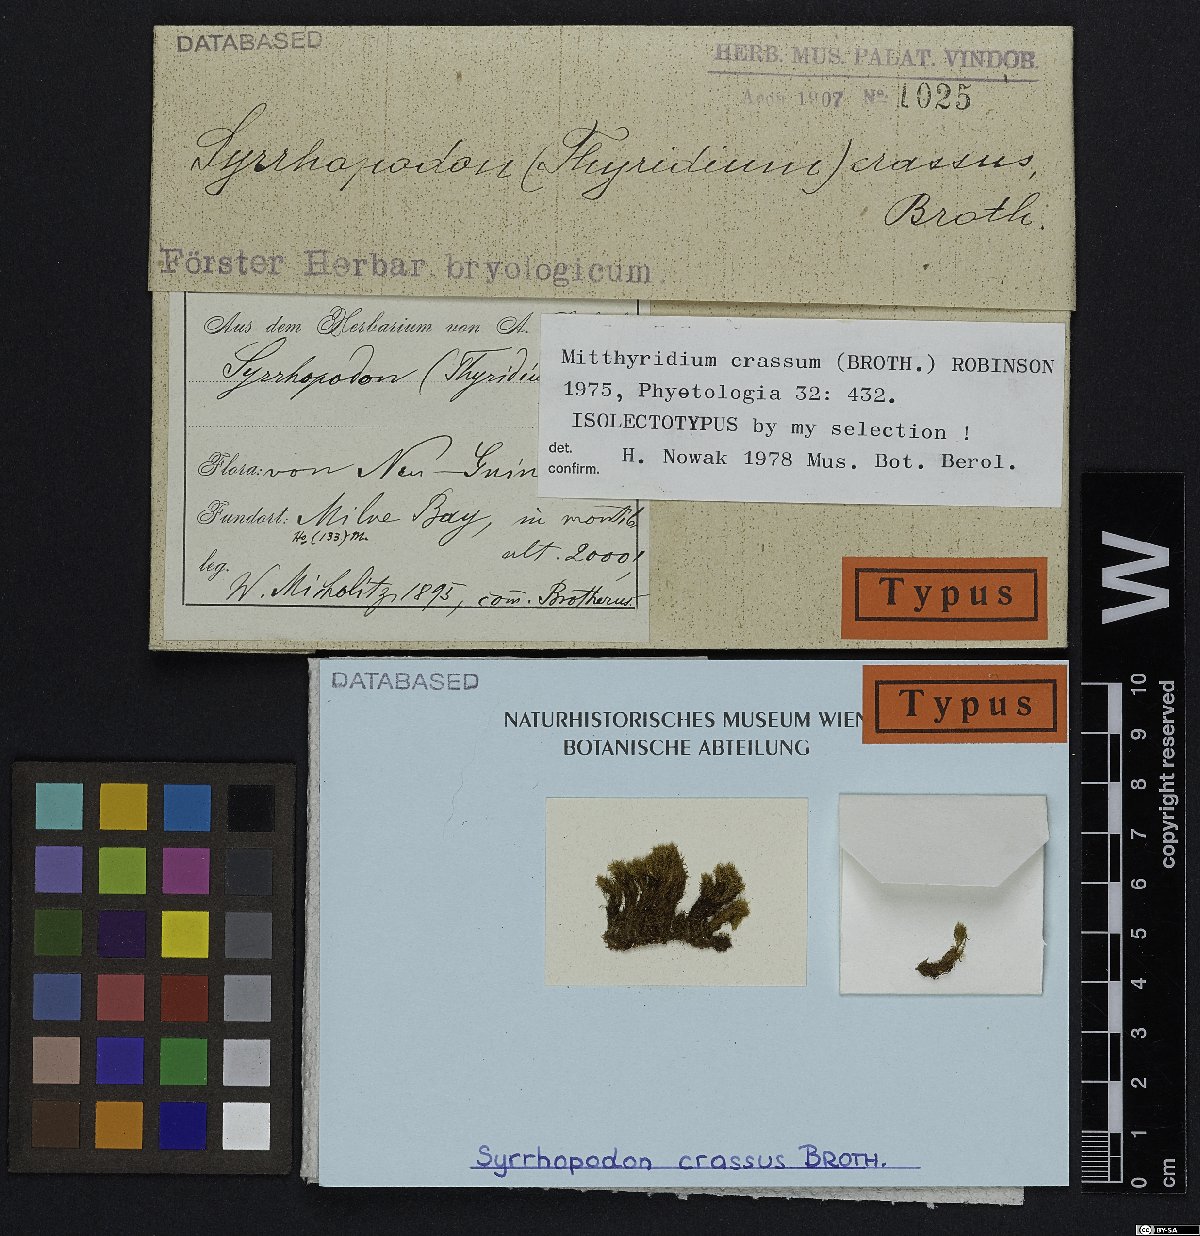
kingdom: Plantae
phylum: Bryophyta
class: Bryopsida
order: Dicranales
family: Calymperaceae
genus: Mitthyridium
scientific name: Mitthyridium wallisii
